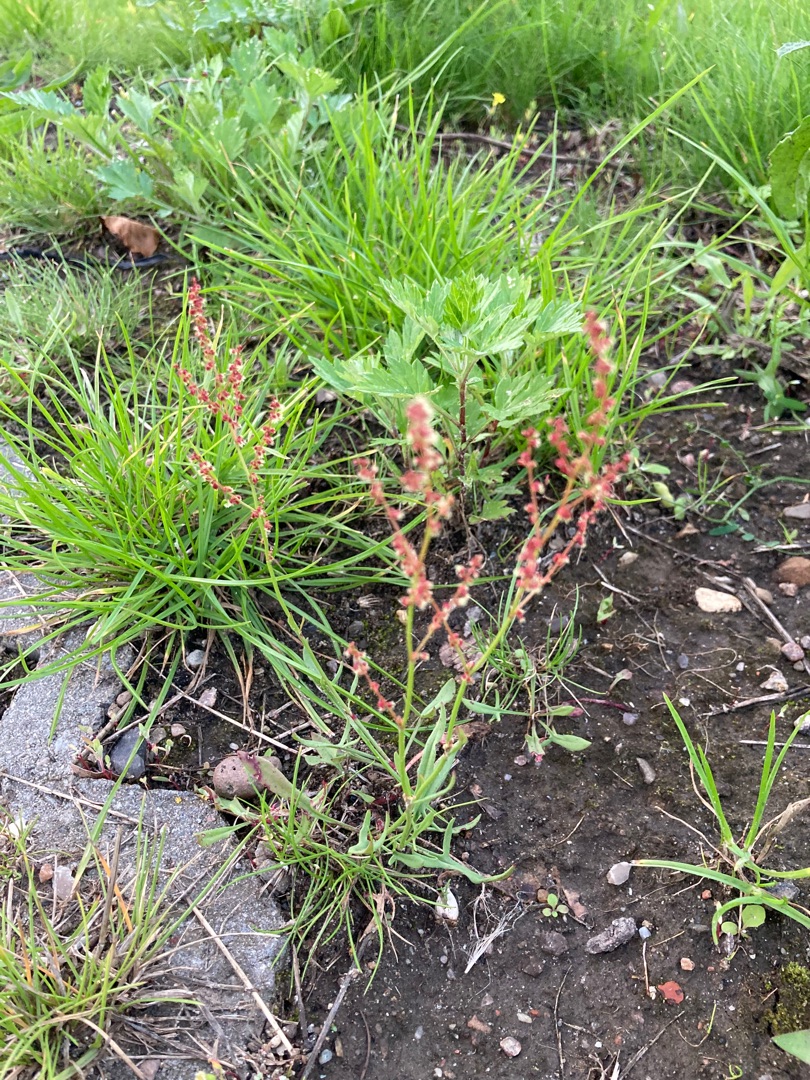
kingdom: Plantae
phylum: Tracheophyta
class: Magnoliopsida
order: Caryophyllales
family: Polygonaceae
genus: Rumex
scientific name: Rumex acetosella
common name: Rødknæ
